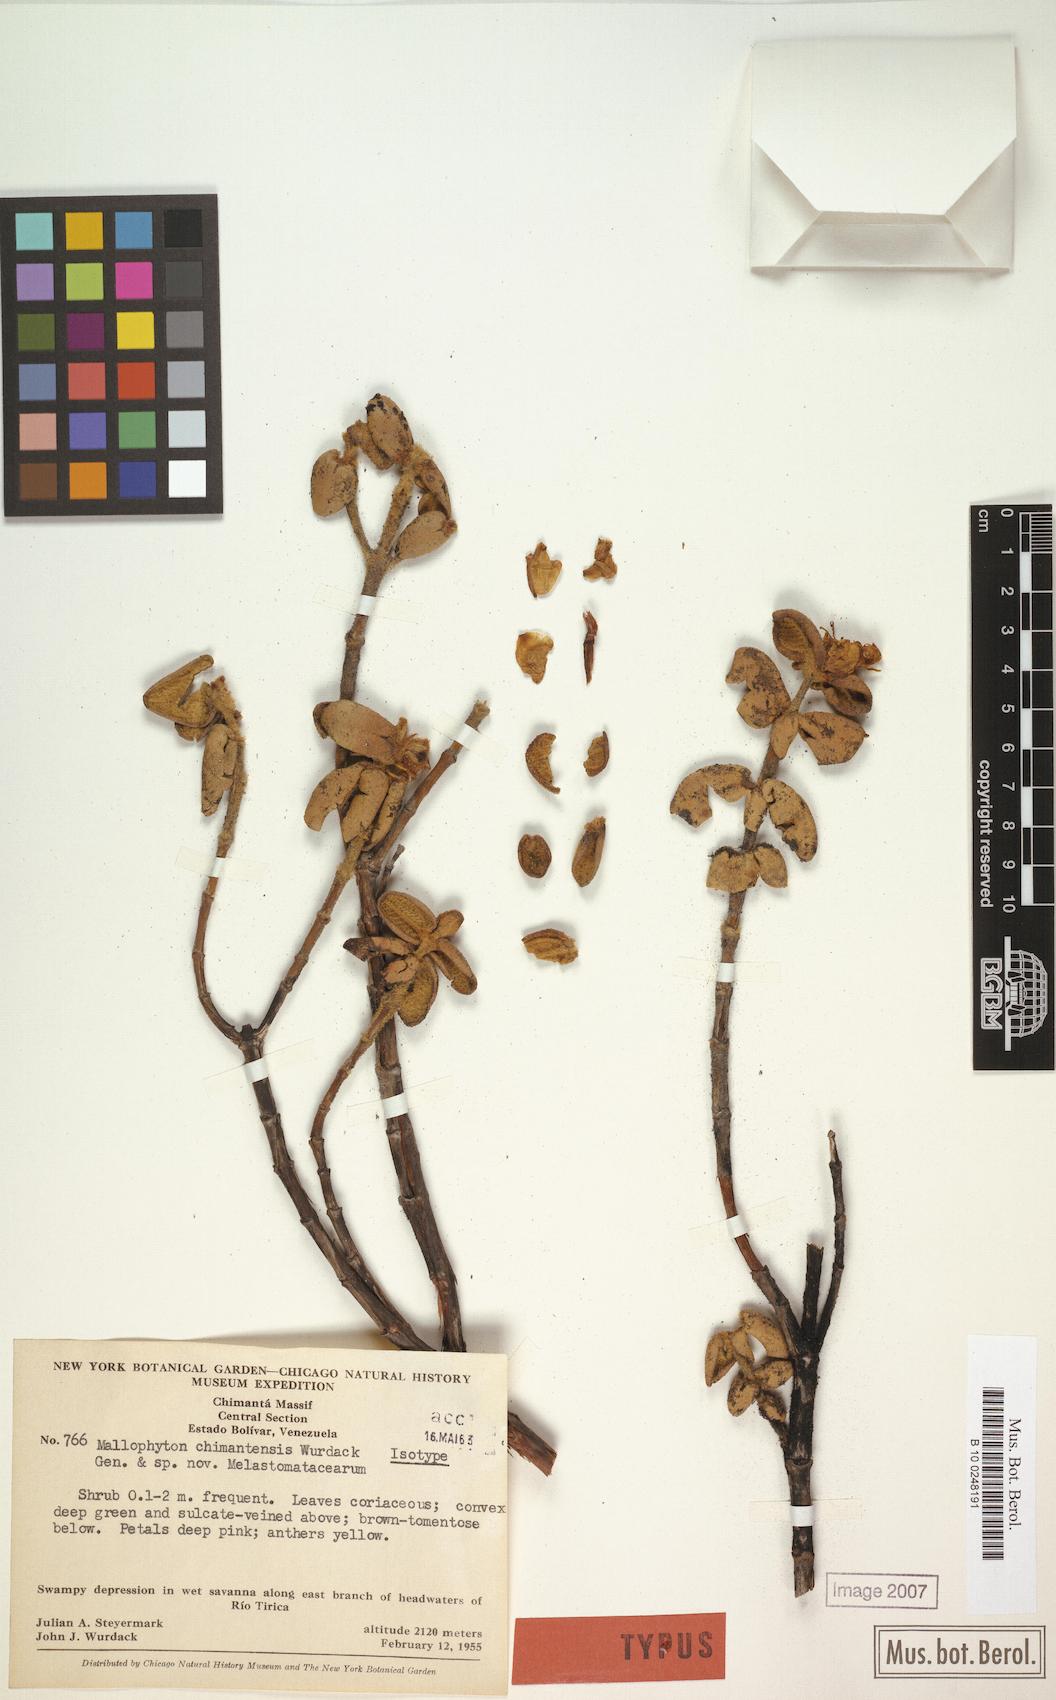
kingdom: Plantae
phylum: Tracheophyta
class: Magnoliopsida
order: Myrtales
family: Melastomataceae
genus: Mallophyton
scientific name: Mallophyton chimantense
